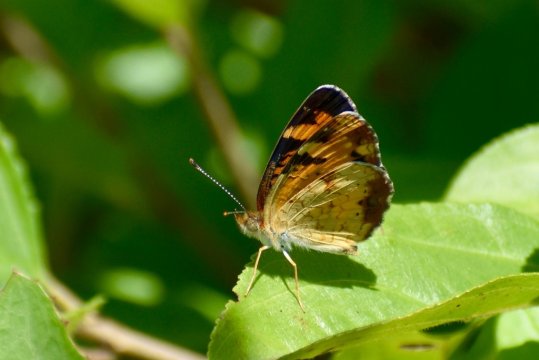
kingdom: Animalia
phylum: Arthropoda
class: Insecta
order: Lepidoptera
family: Nymphalidae
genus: Phyciodes
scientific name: Phyciodes tharos
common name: Pearl Crescent
